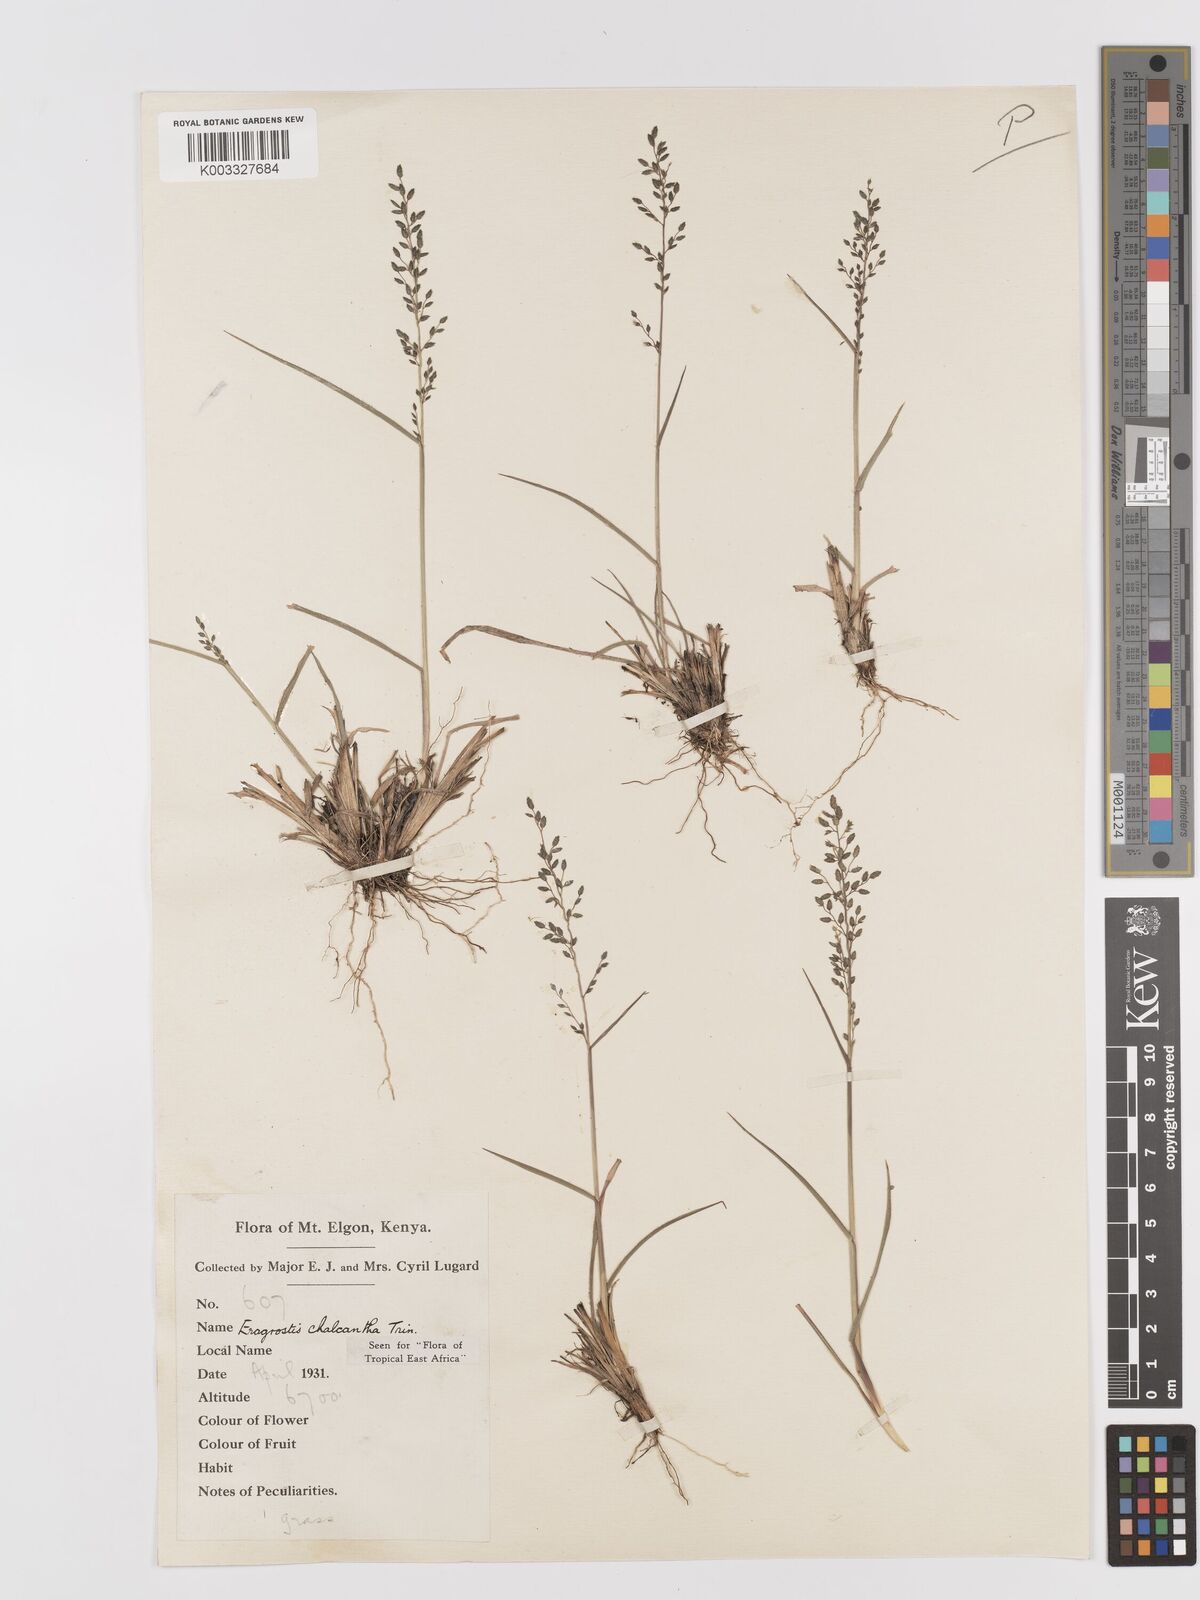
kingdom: Plantae
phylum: Tracheophyta
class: Liliopsida
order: Poales
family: Poaceae
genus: Eragrostis
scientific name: Eragrostis racemosa
